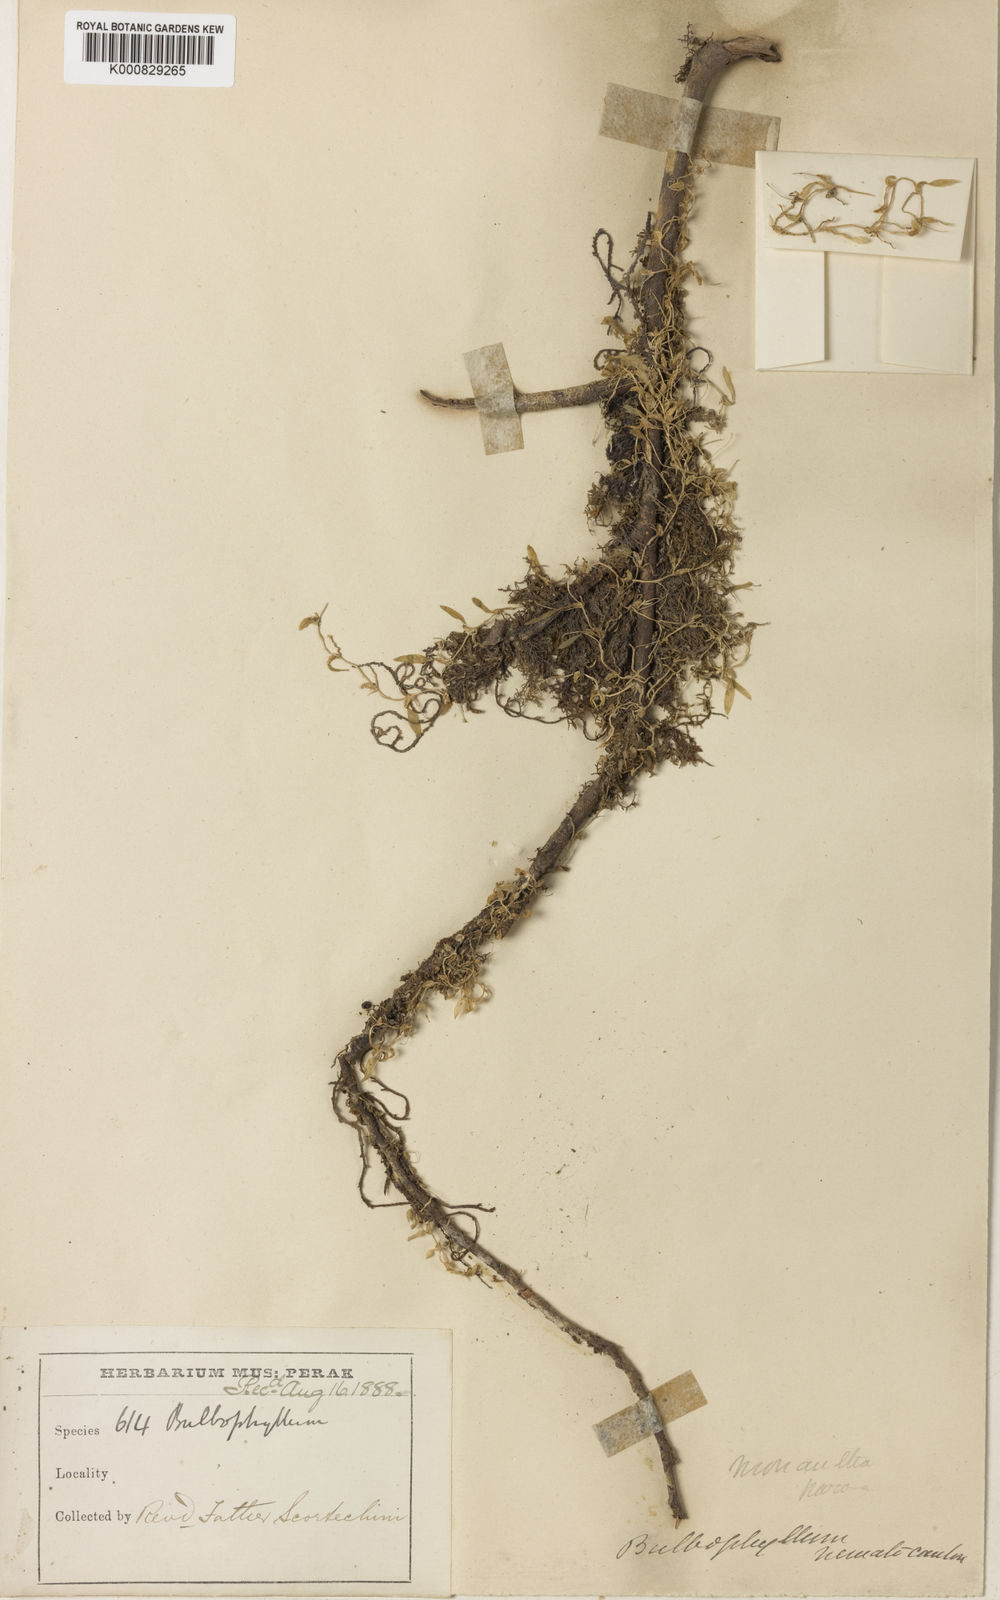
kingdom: Plantae
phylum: Tracheophyta
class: Liliopsida
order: Asparagales
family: Orchidaceae
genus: Bulbophyllum
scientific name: Bulbophyllum nematocaulon
